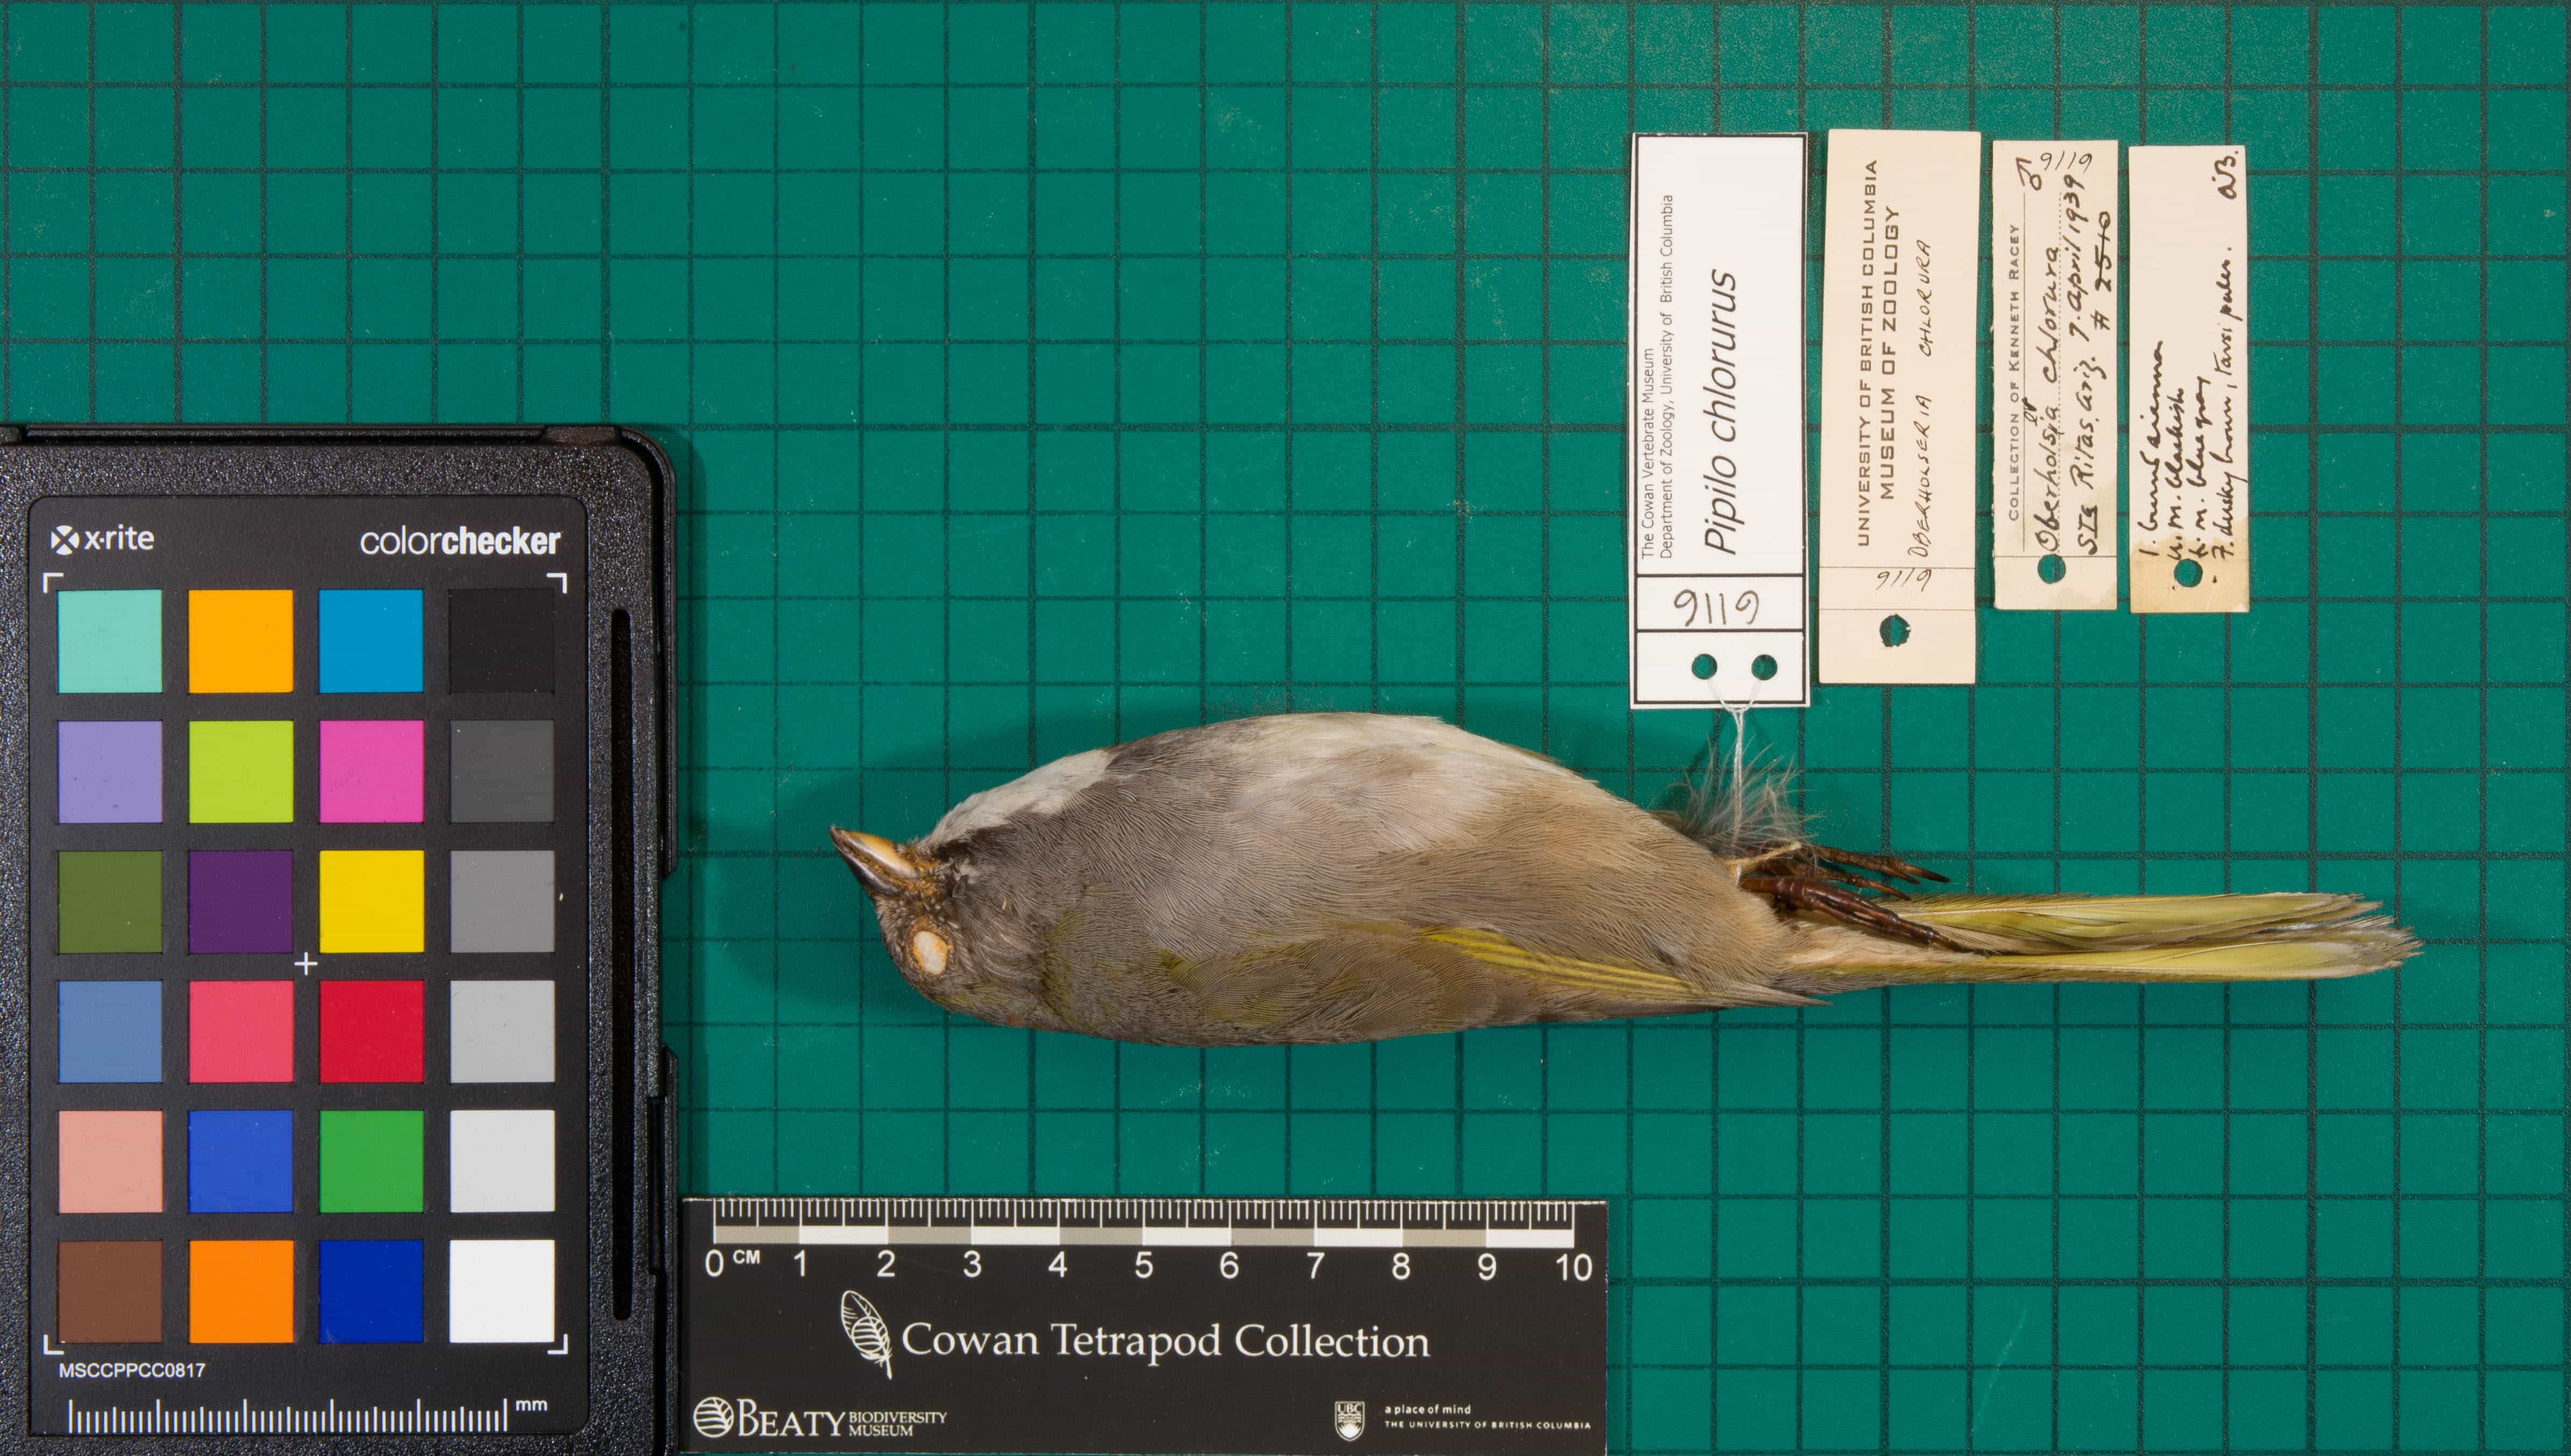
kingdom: Animalia
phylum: Chordata
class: Aves
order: Passeriformes
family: Passerellidae
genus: Pipilo
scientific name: Pipilo chlorurus
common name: Green-tailed Towhee
